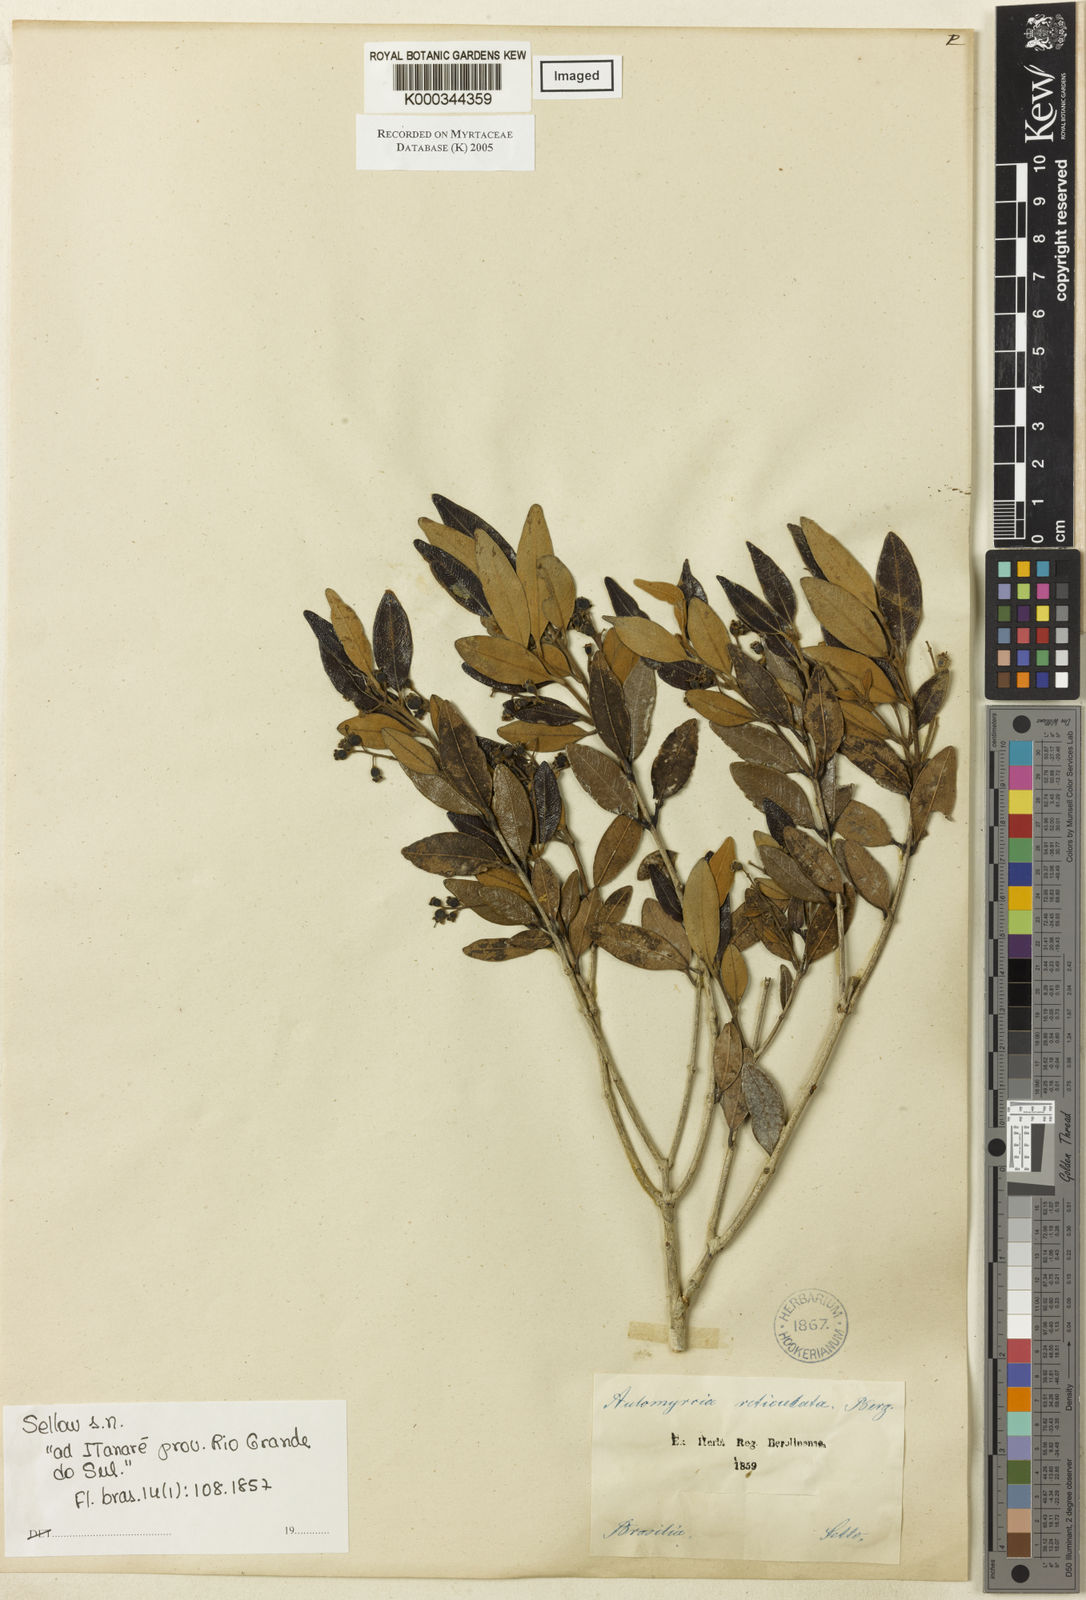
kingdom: Plantae
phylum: Tracheophyta
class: Magnoliopsida
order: Myrtales
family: Myrtaceae
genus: Myrcia
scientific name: Myrcia venulosa
